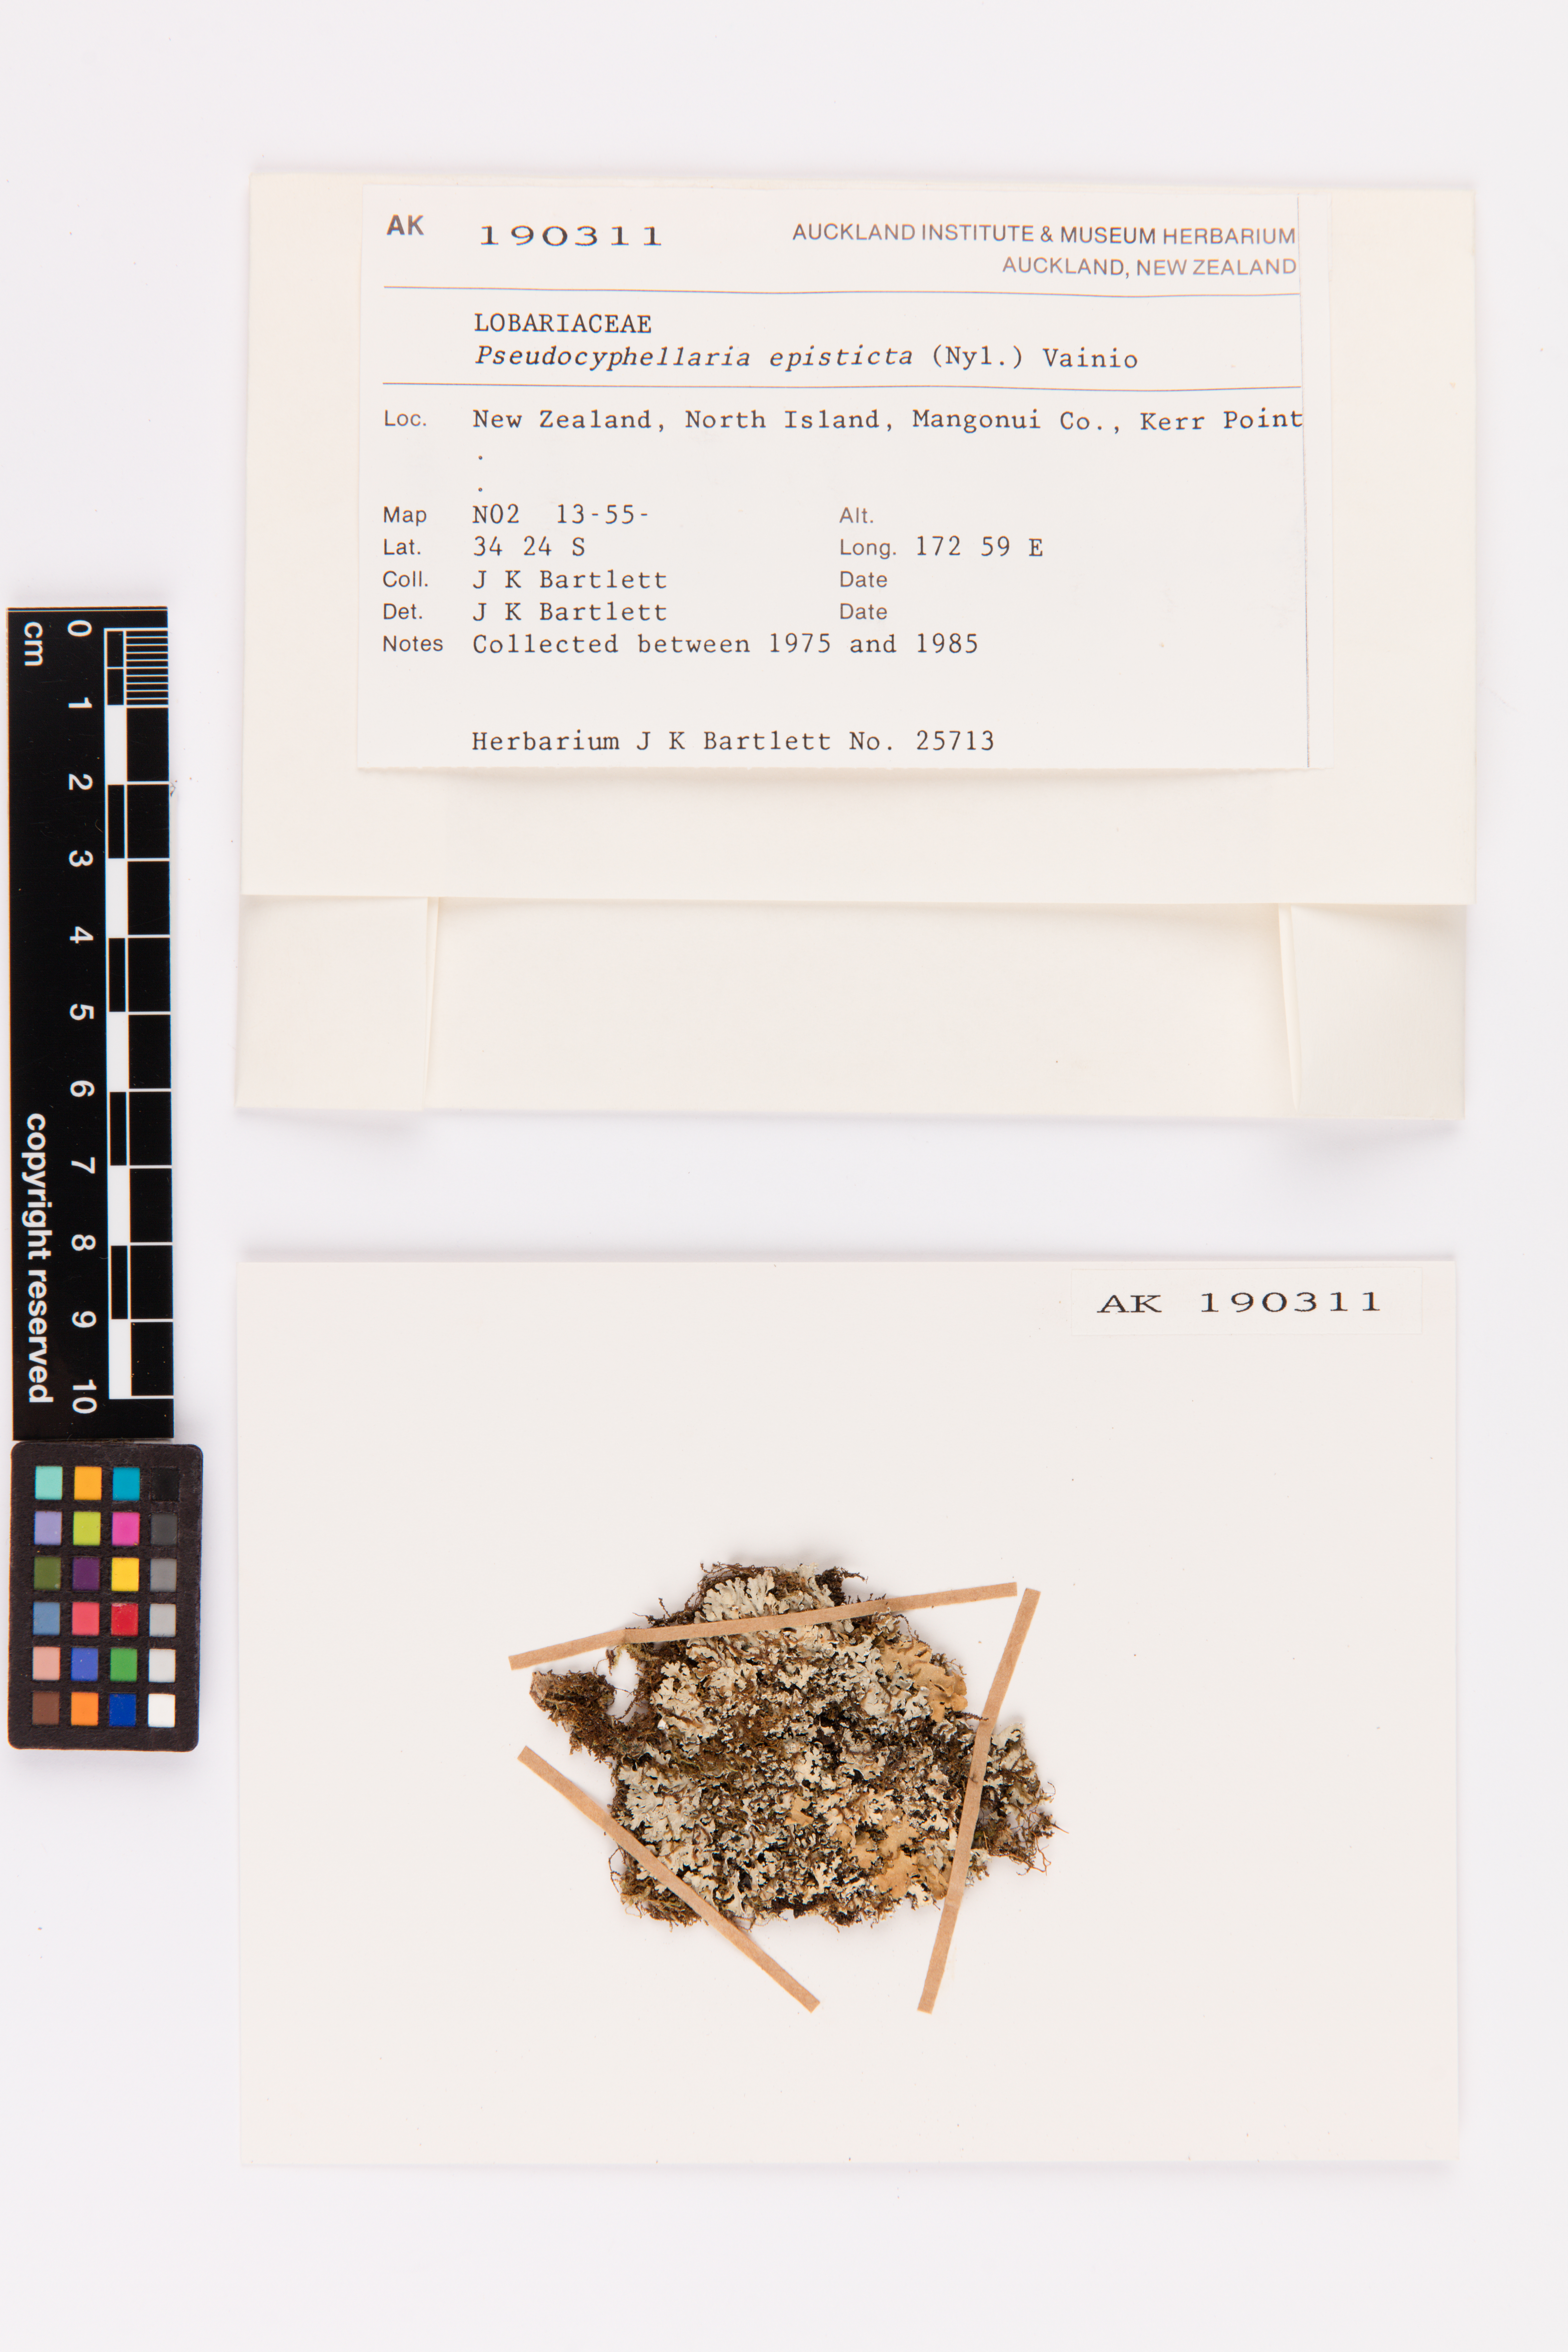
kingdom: Fungi
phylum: Ascomycota
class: Lecanoromycetes
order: Peltigerales
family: Lobariaceae
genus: Pseudocyphellaria
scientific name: Pseudocyphellaria episticta
